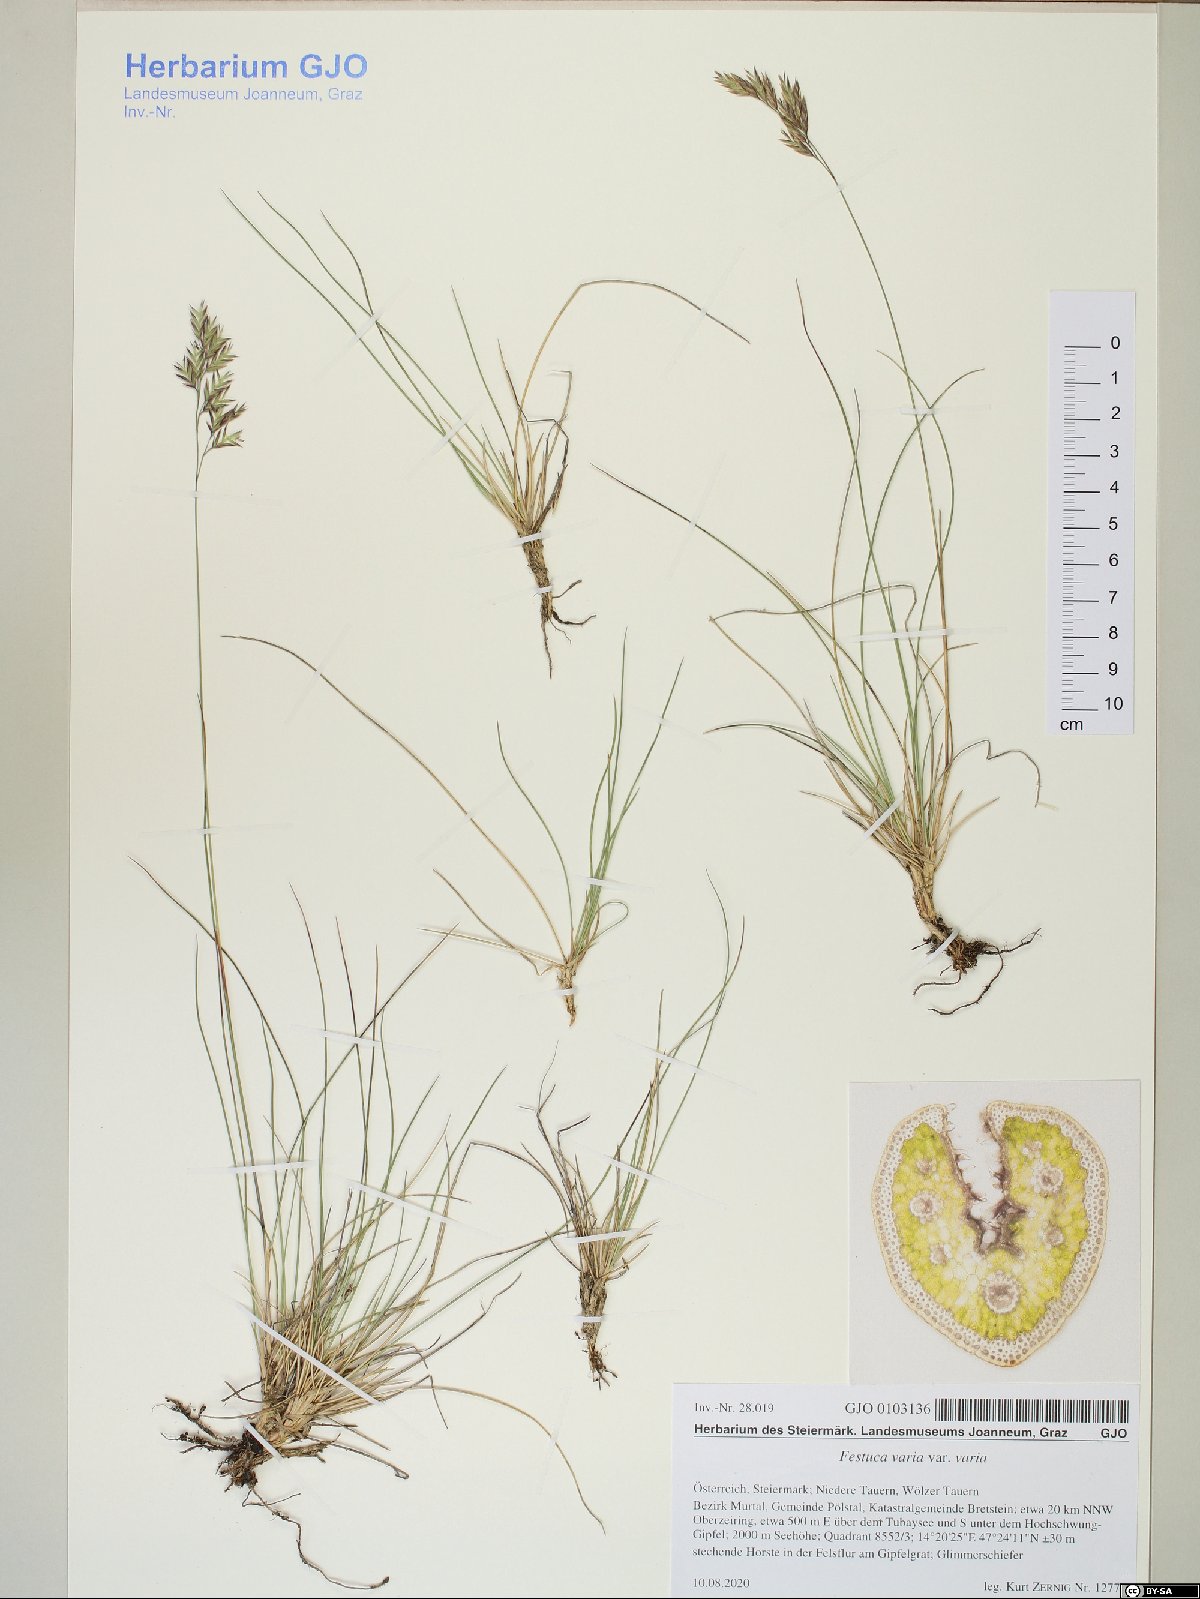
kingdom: Plantae
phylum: Tracheophyta
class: Liliopsida
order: Poales
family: Poaceae
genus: Festuca
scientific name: Festuca varia
